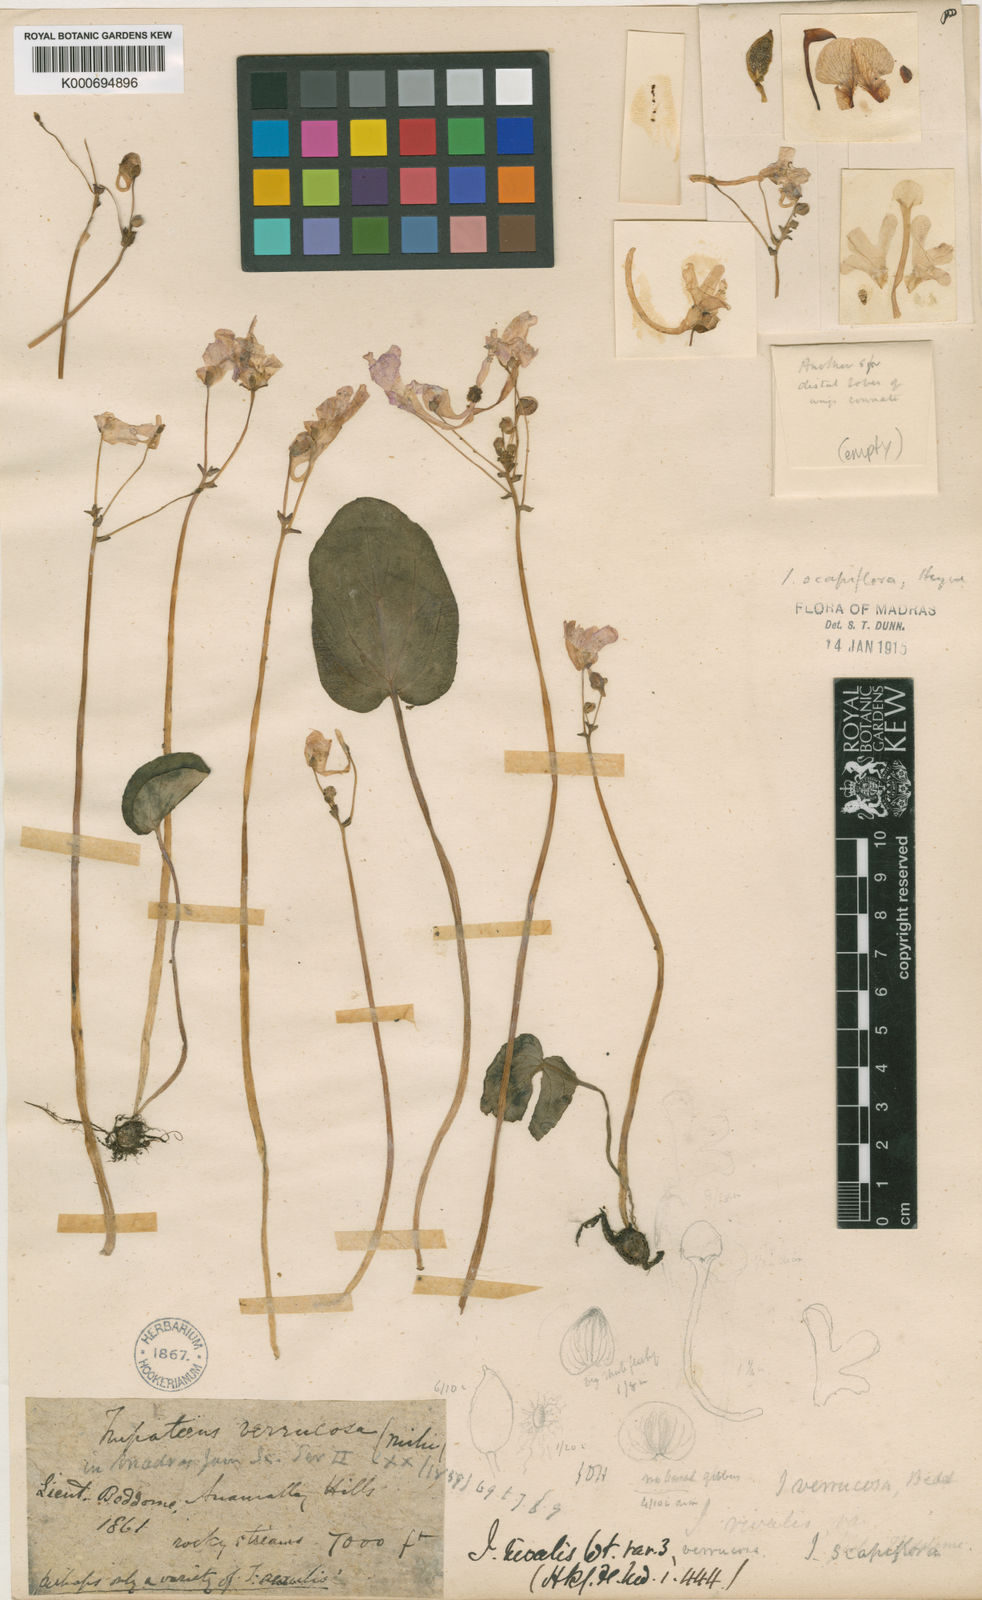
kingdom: Plantae
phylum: Tracheophyta
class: Magnoliopsida
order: Ericales
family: Balsaminaceae
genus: Impatiens
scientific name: Impatiens
